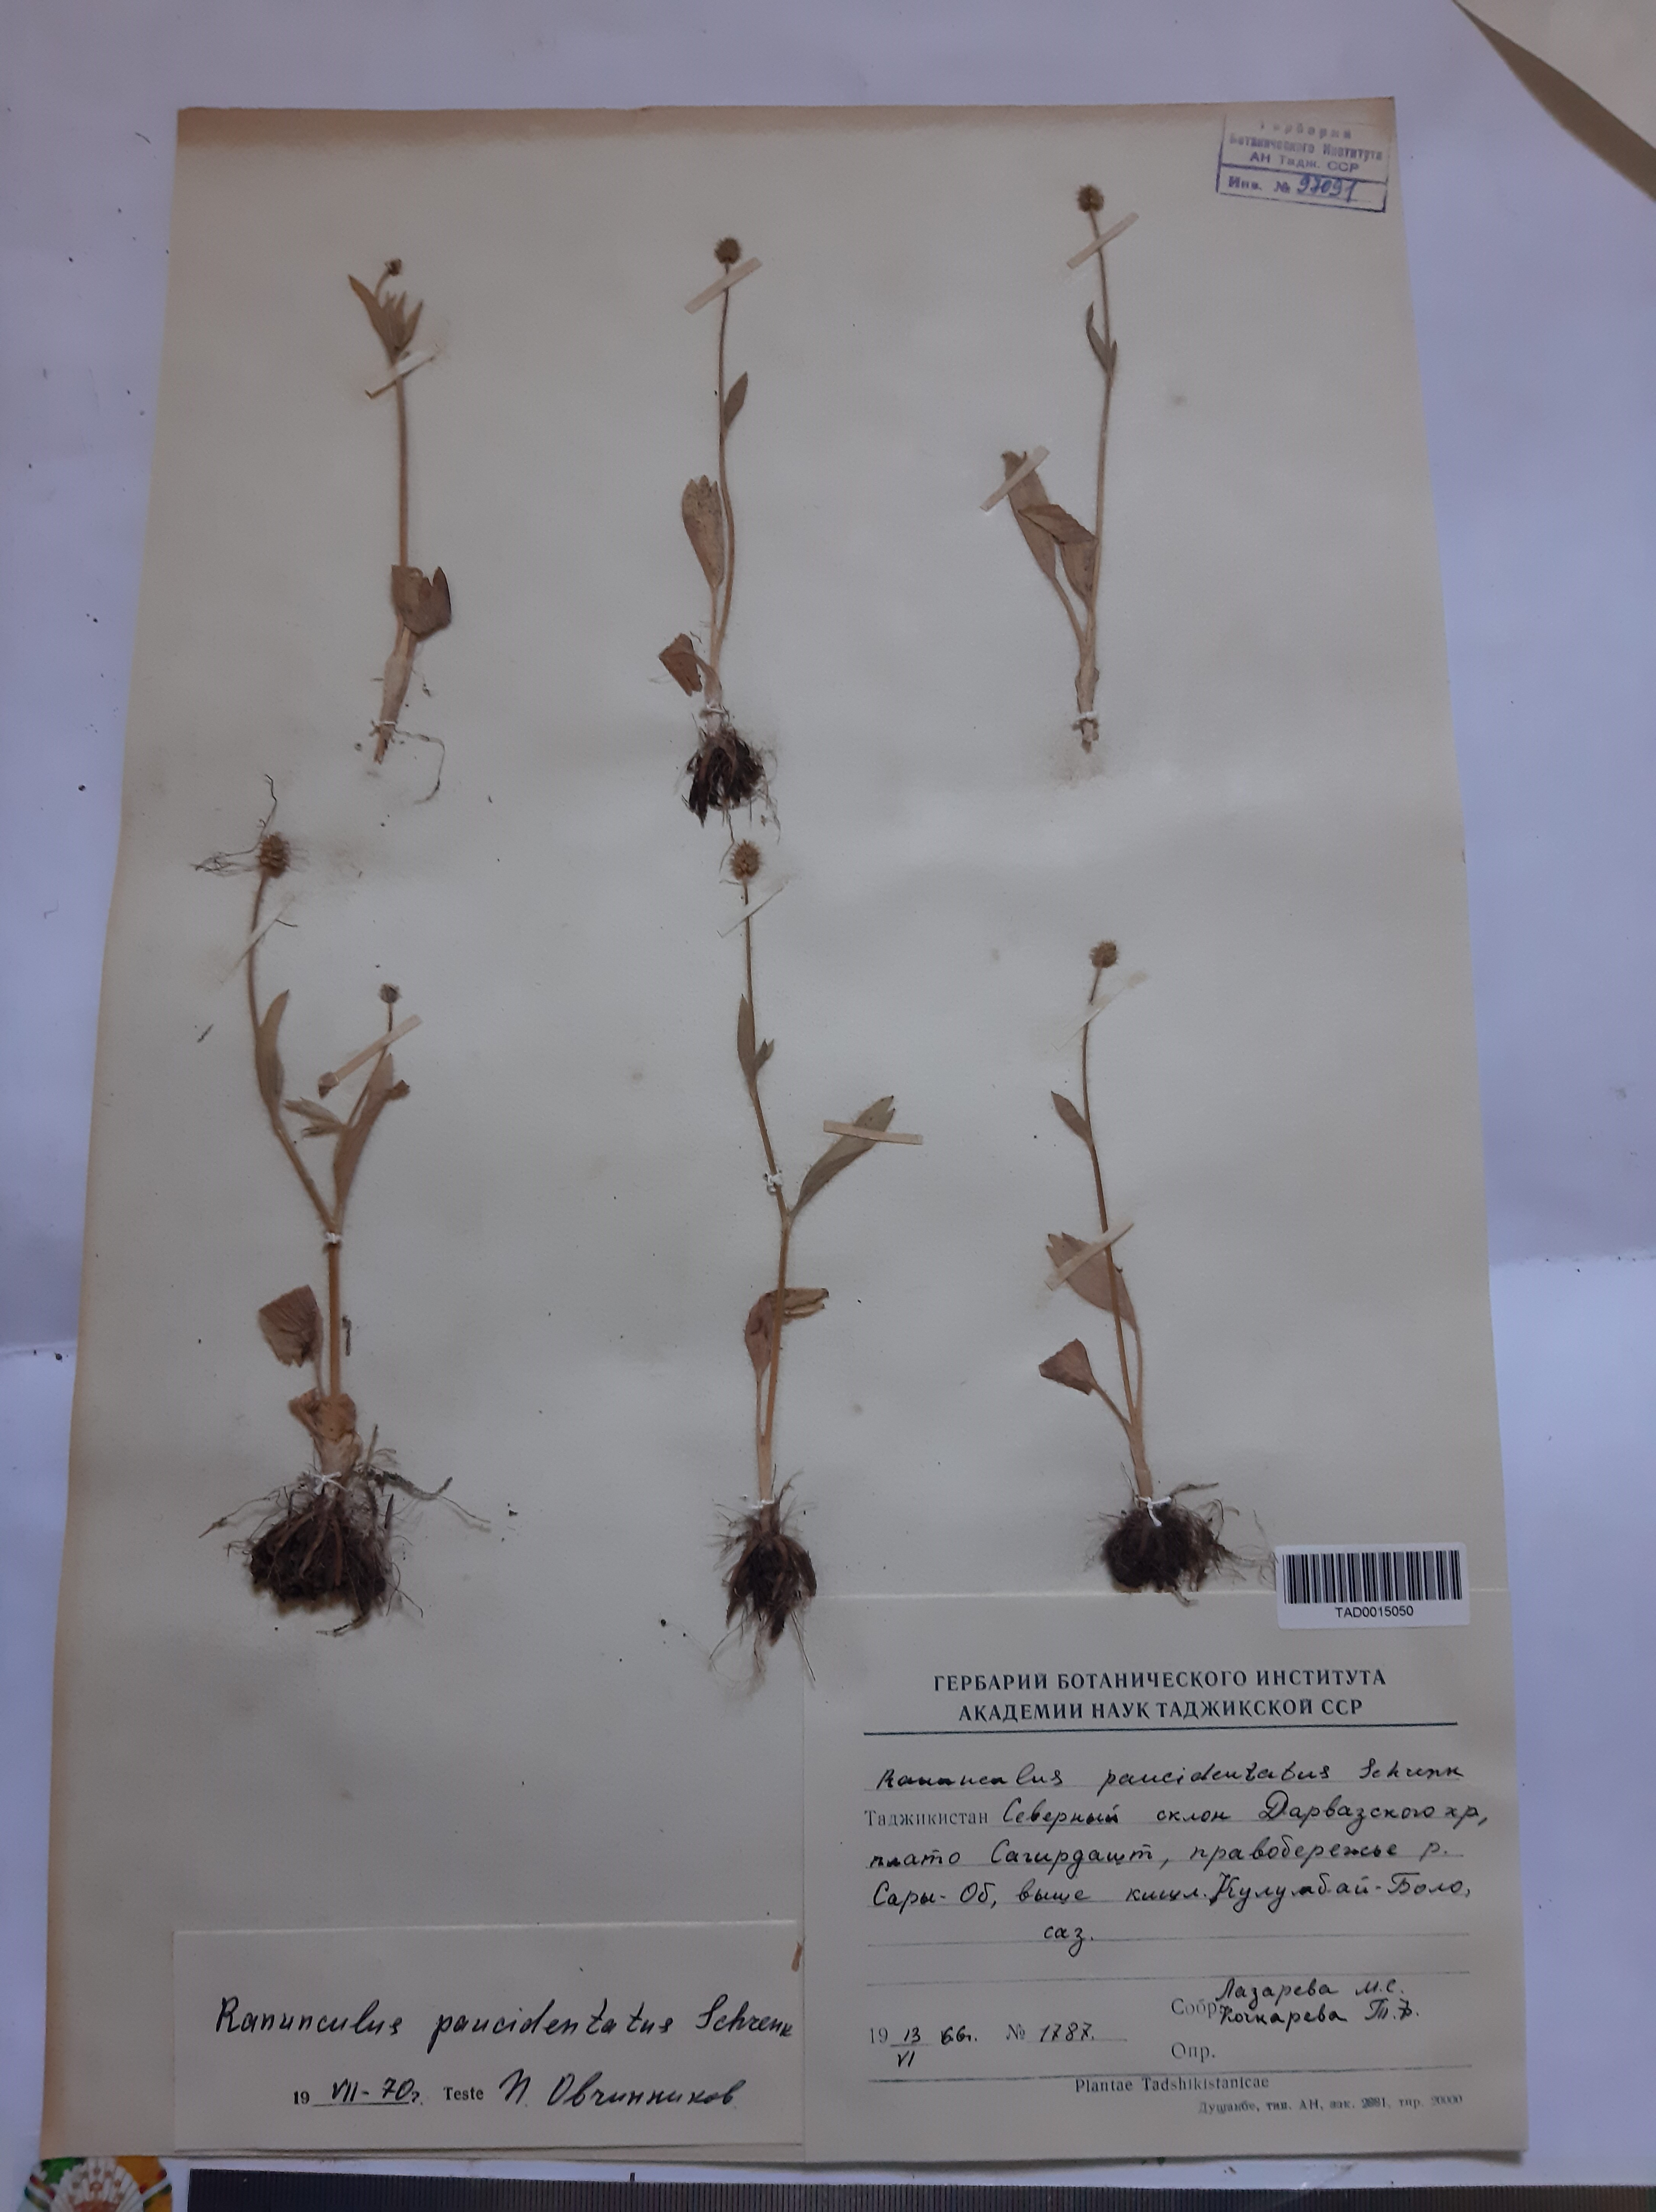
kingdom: Plantae
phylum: Tracheophyta
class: Magnoliopsida
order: Ranunculales
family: Ranunculaceae
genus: Ranunculus
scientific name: Ranunculus paucidentatus
